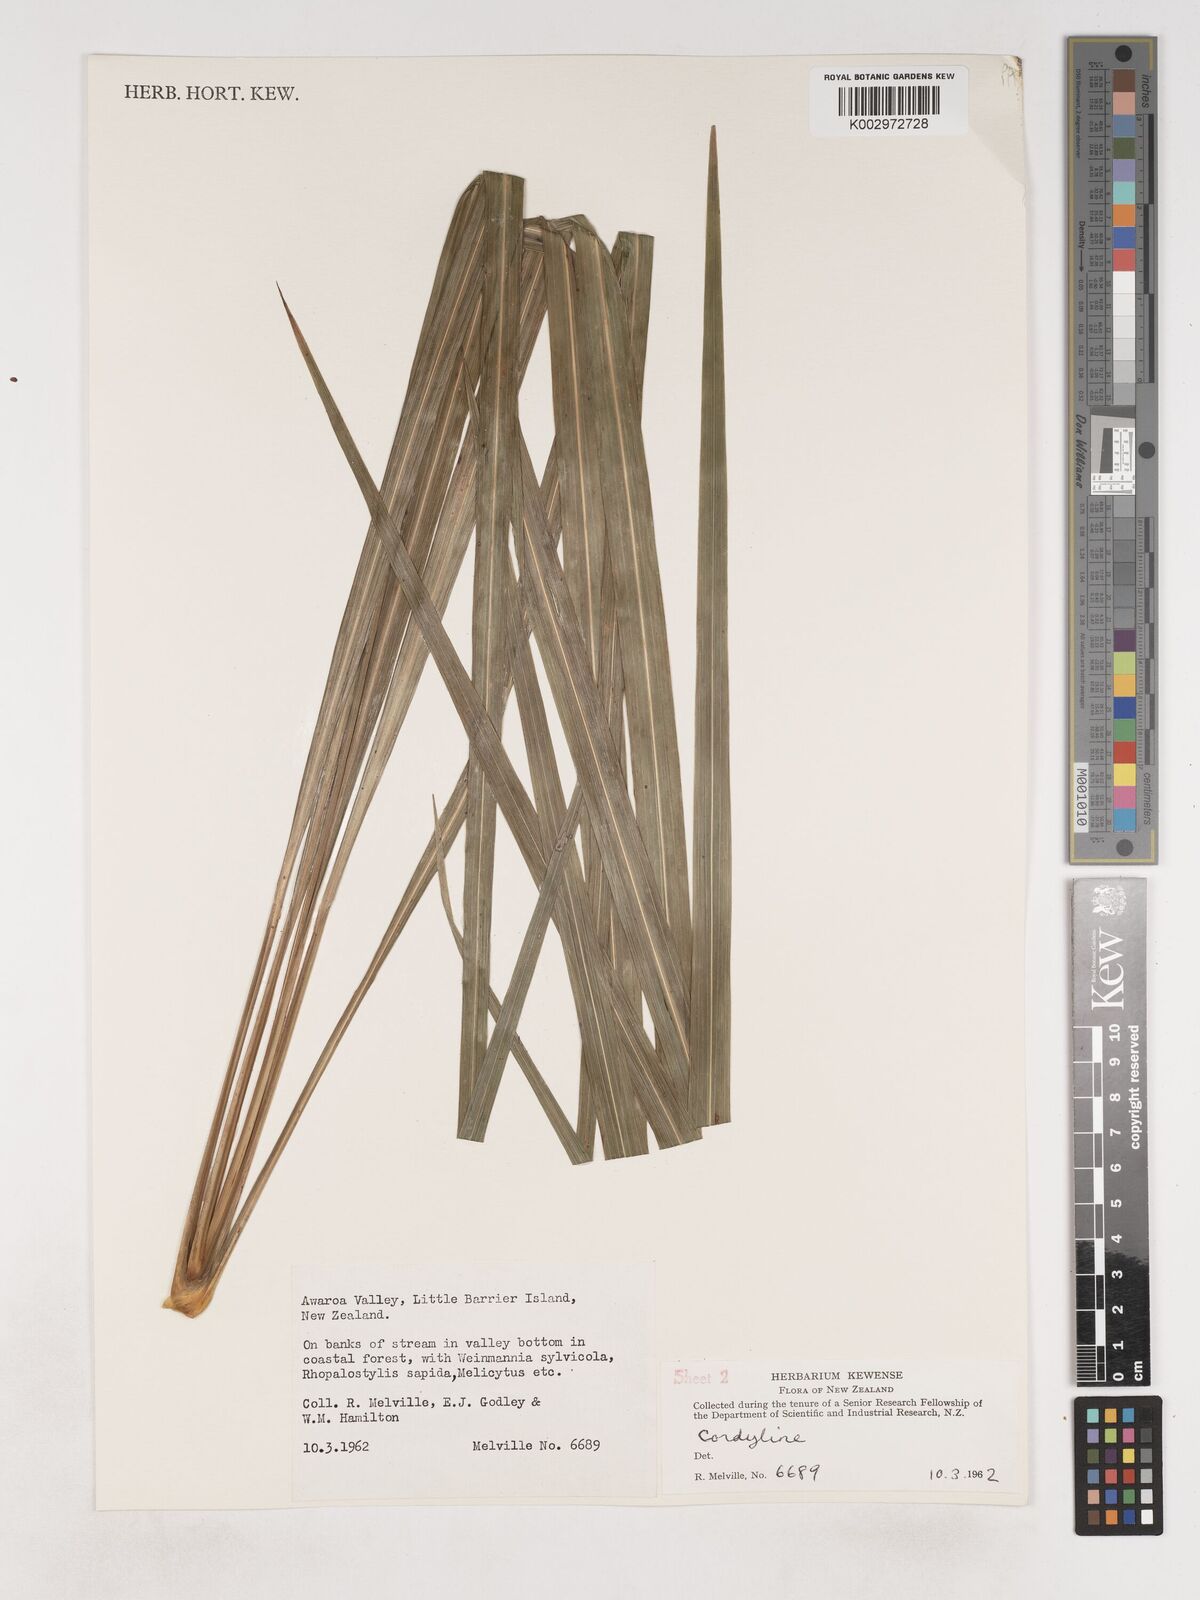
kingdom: Plantae
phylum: Tracheophyta
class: Liliopsida
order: Asparagales
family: Asparagaceae
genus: Cordyline
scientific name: Cordyline
